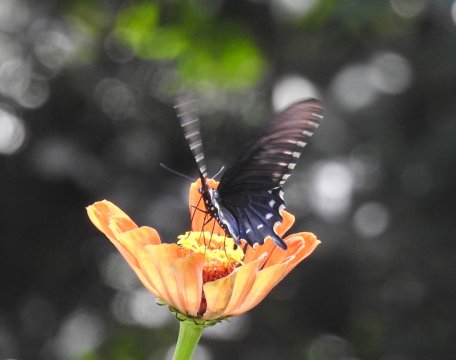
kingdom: Animalia
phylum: Arthropoda
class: Insecta
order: Lepidoptera
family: Papilionidae
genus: Battus
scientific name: Battus philenor
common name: Pipevine Swallowtail
